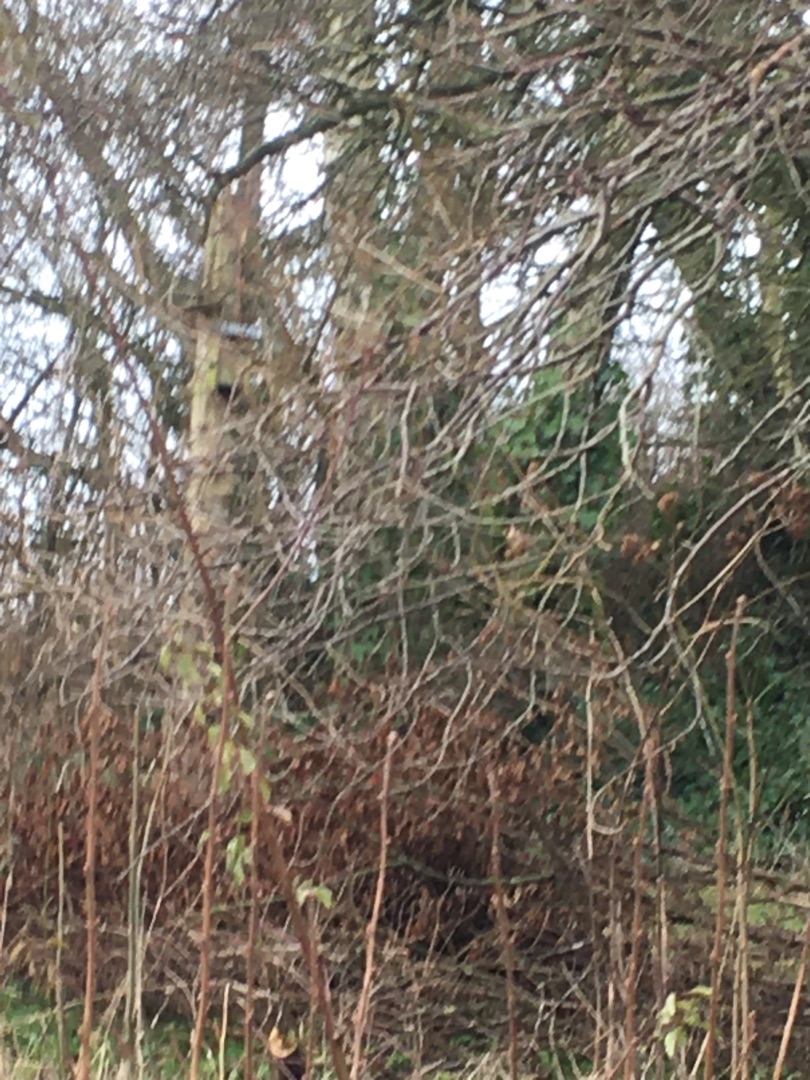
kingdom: Animalia
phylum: Chordata
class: Aves
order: Passeriformes
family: Fringillidae
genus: Carduelis
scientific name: Carduelis carduelis
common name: Stillits
